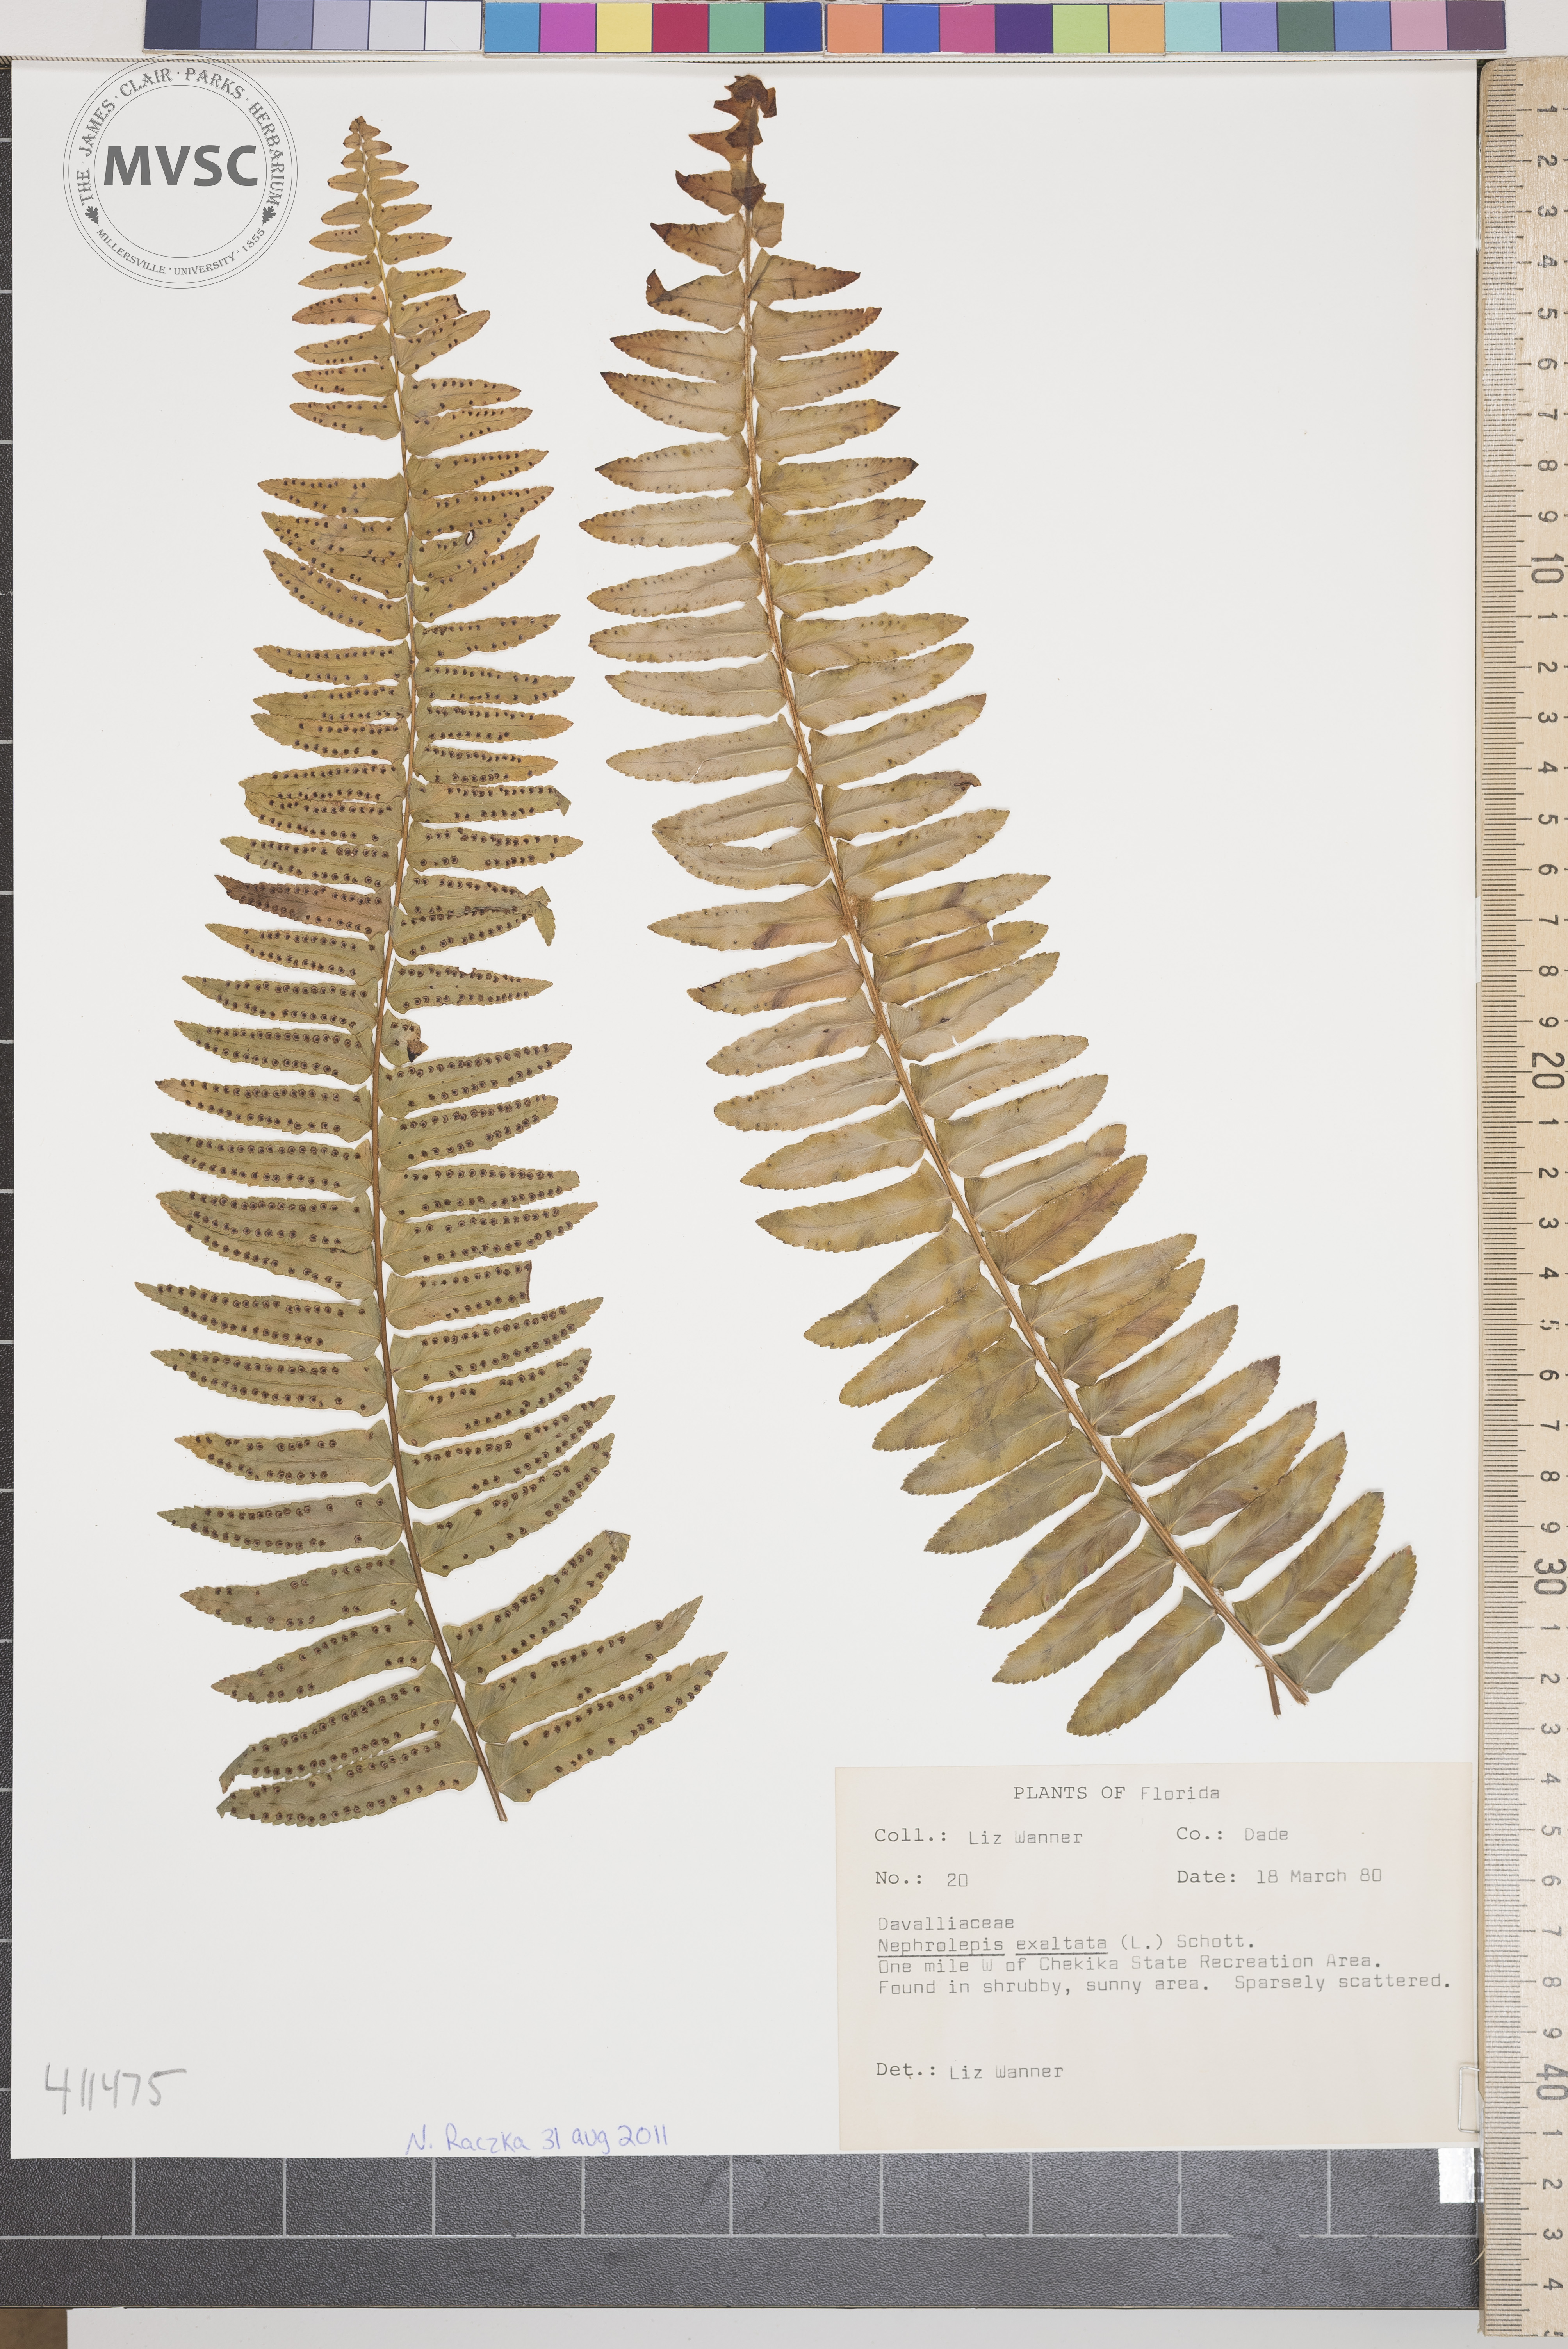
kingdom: Plantae
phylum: Tracheophyta
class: Polypodiopsida
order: Polypodiales
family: Nephrolepidaceae
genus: Nephrolepis
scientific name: Nephrolepis exaltata
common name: Boston Fern
